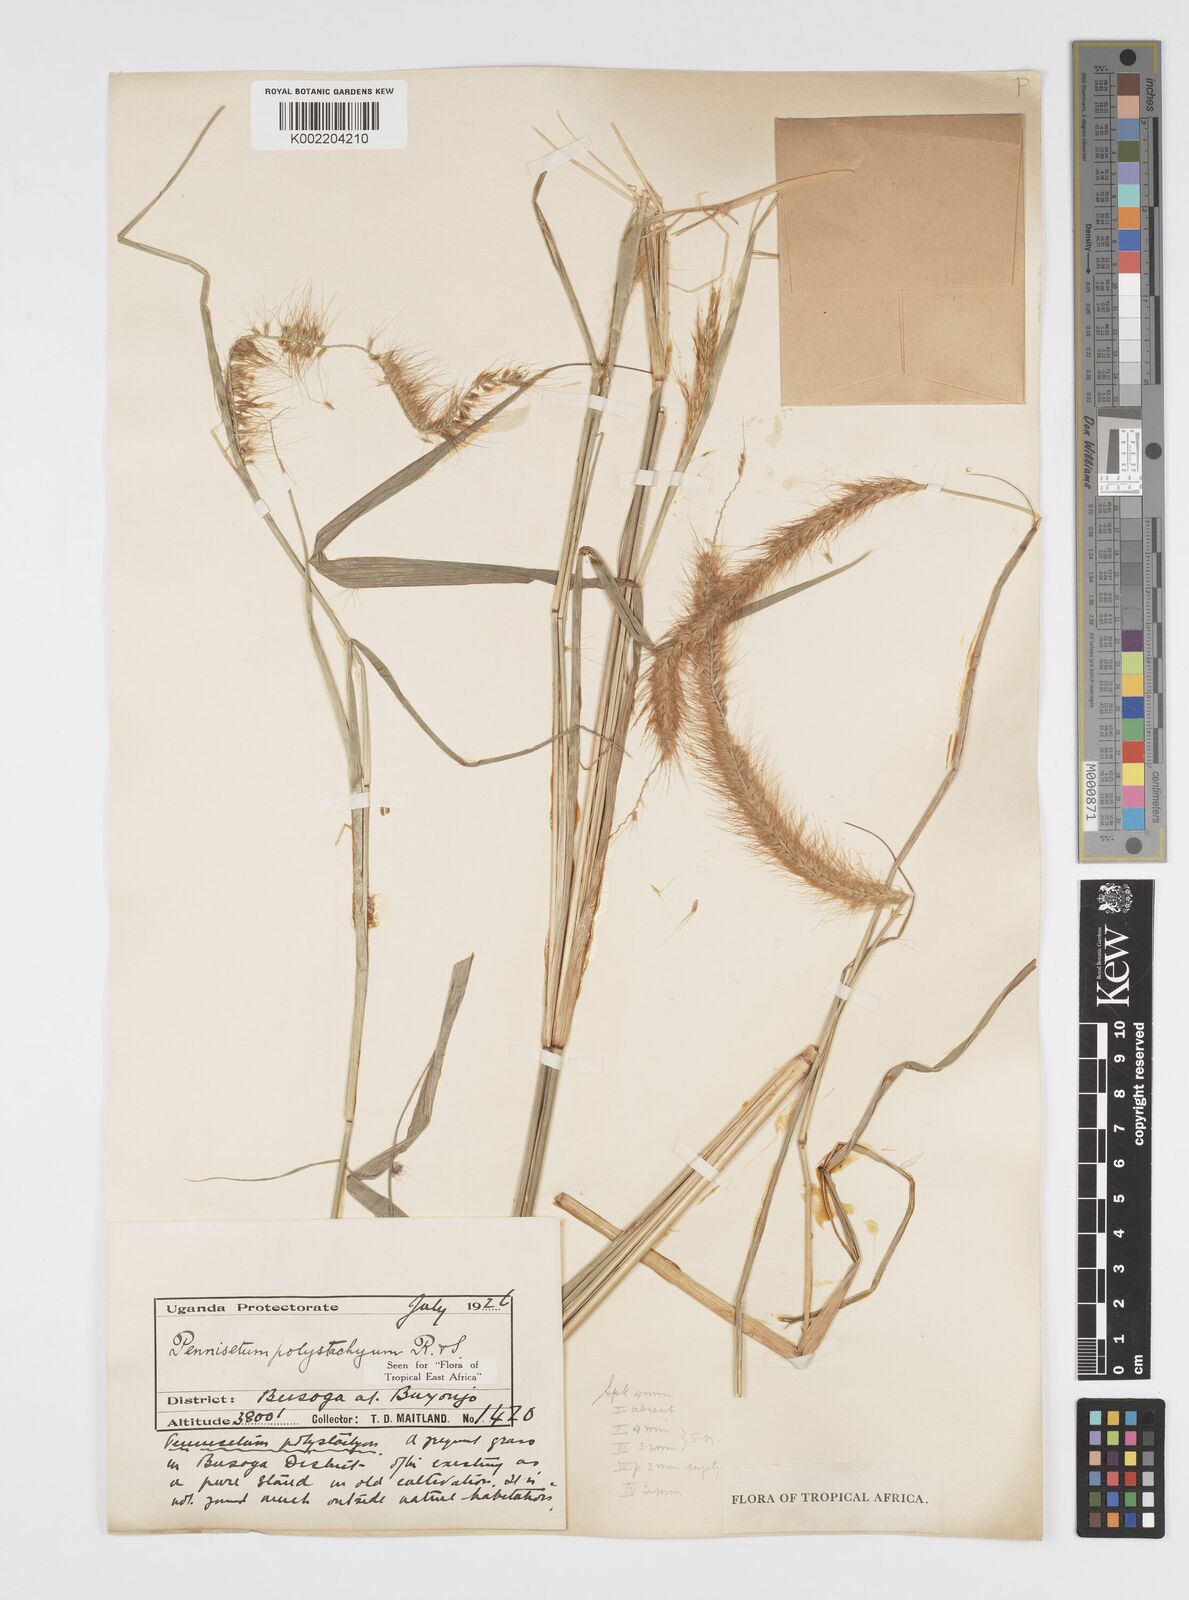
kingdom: Plantae
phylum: Tracheophyta
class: Liliopsida
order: Poales
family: Poaceae
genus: Setaria
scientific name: Setaria parviflora
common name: Knotroot bristle-grass
